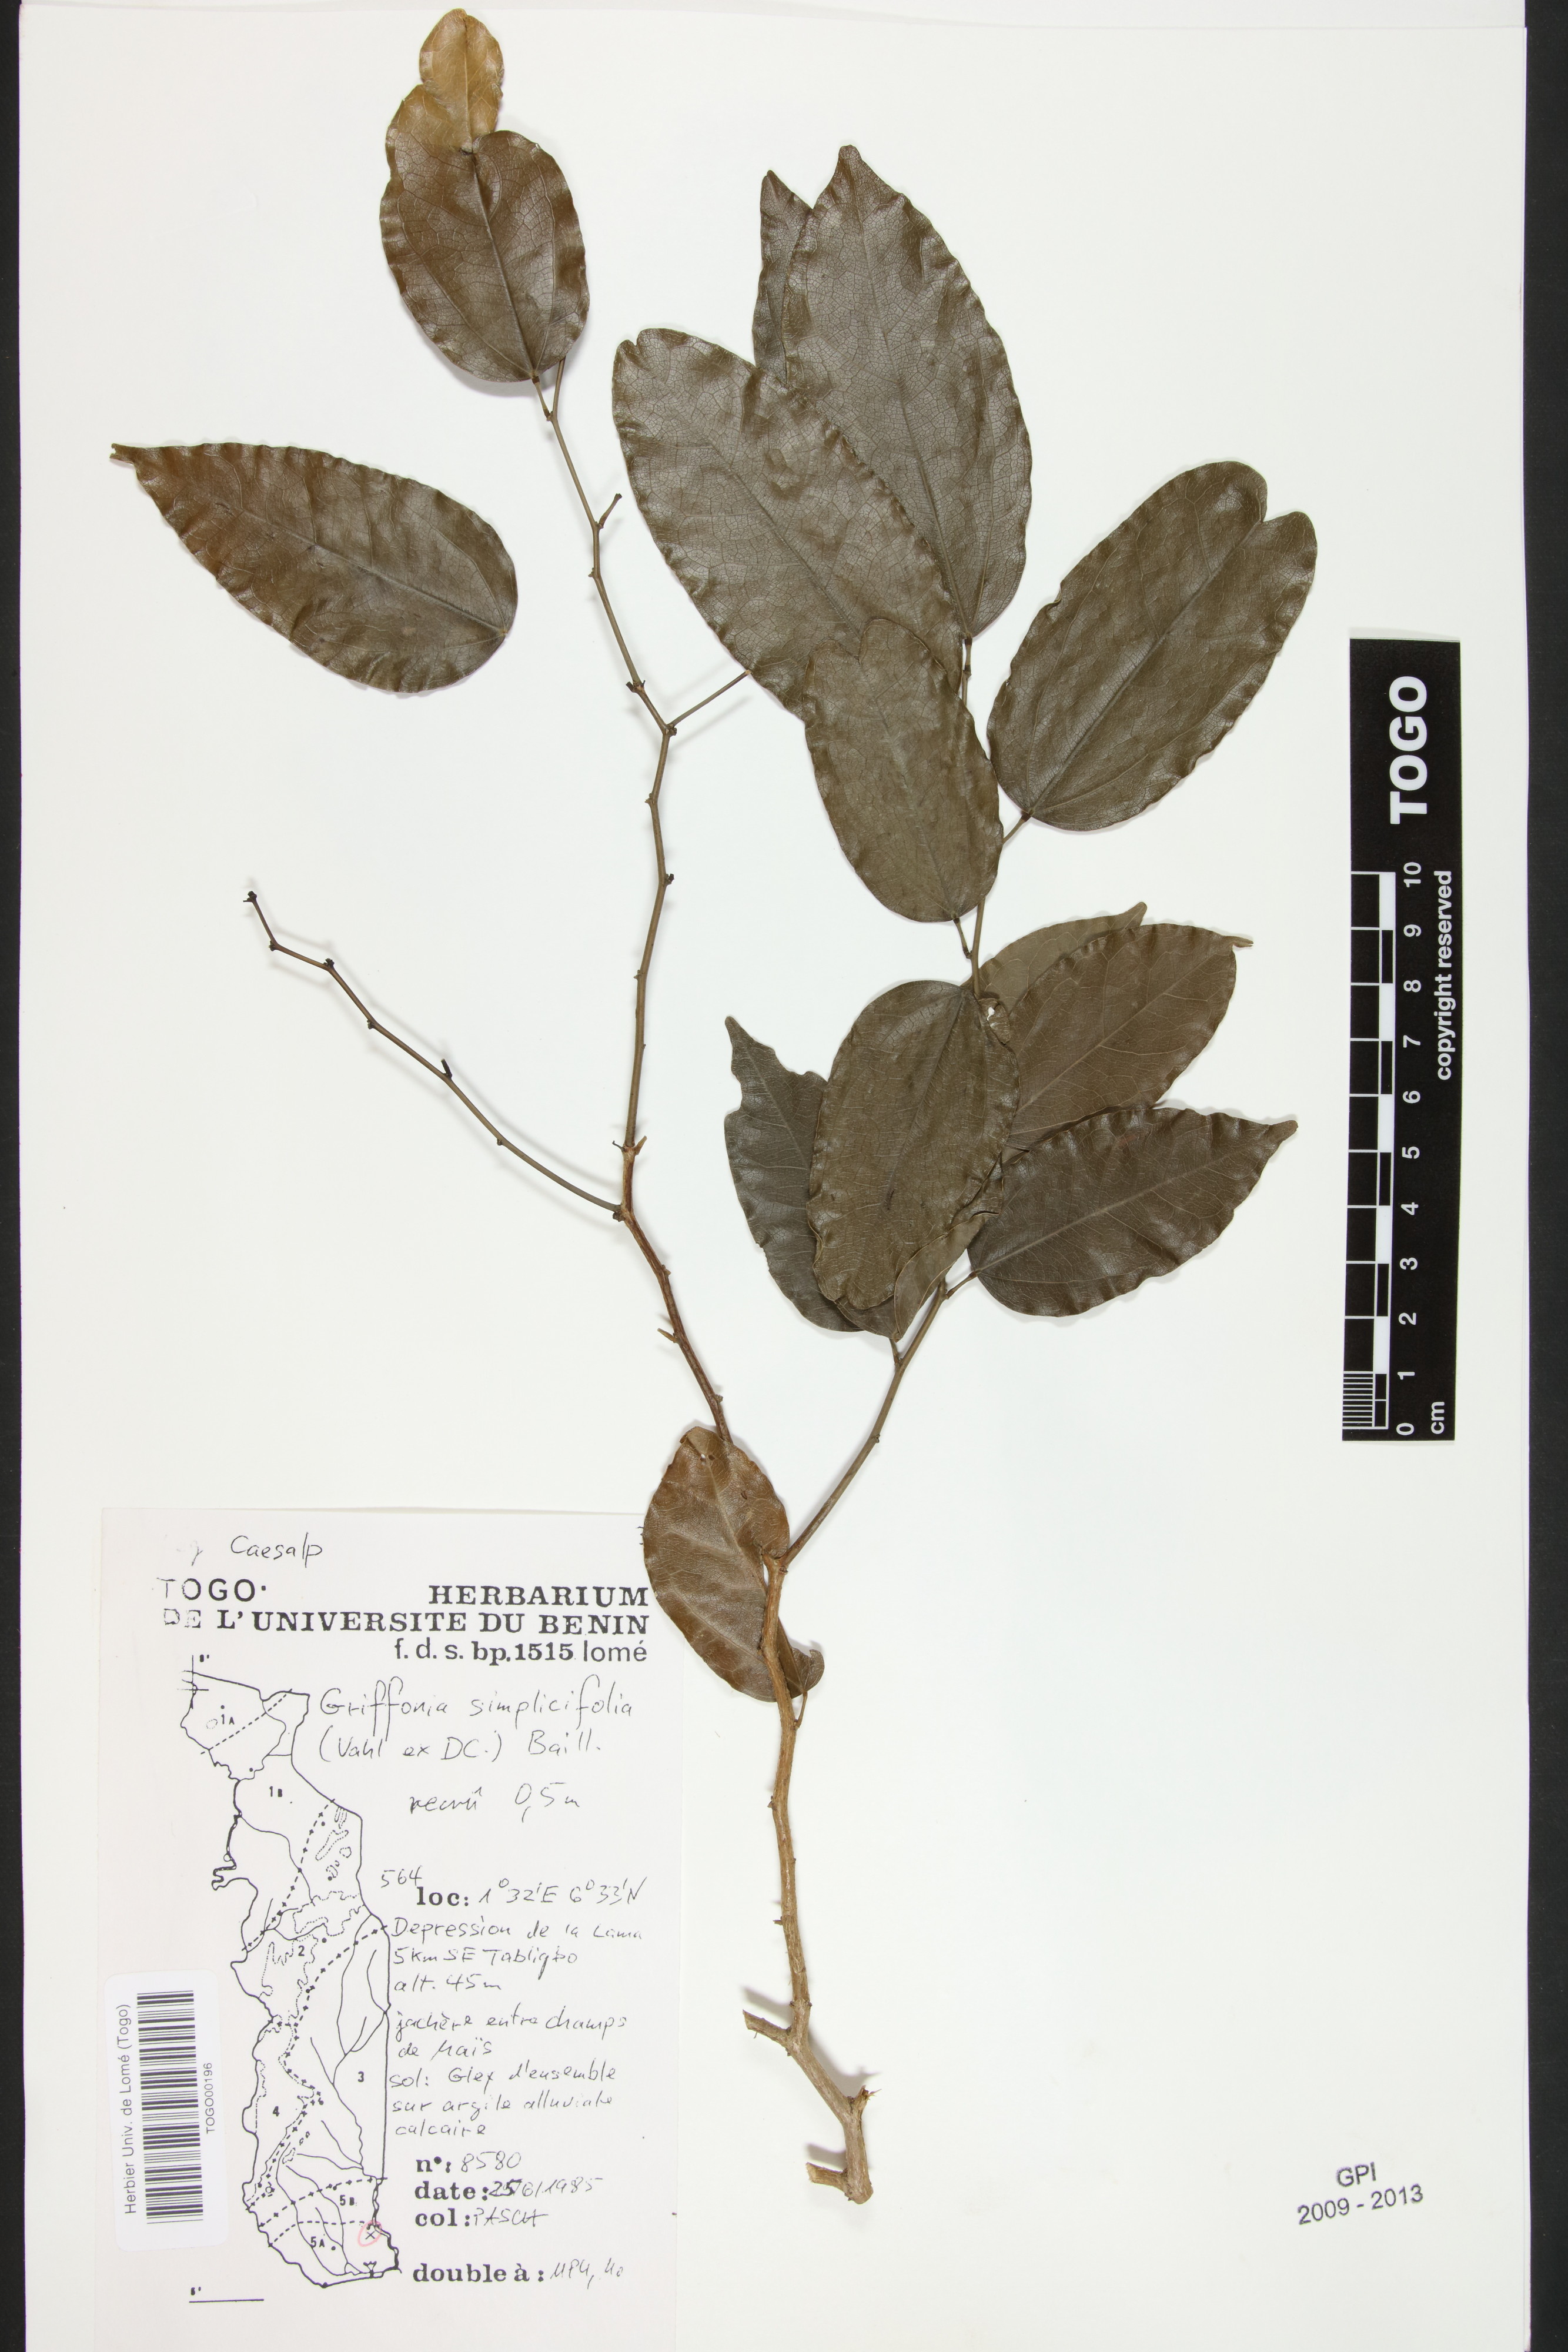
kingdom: Plantae
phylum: Tracheophyta
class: Magnoliopsida
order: Fabales
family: Fabaceae
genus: Griffonia
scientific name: Griffonia simplicifolia
